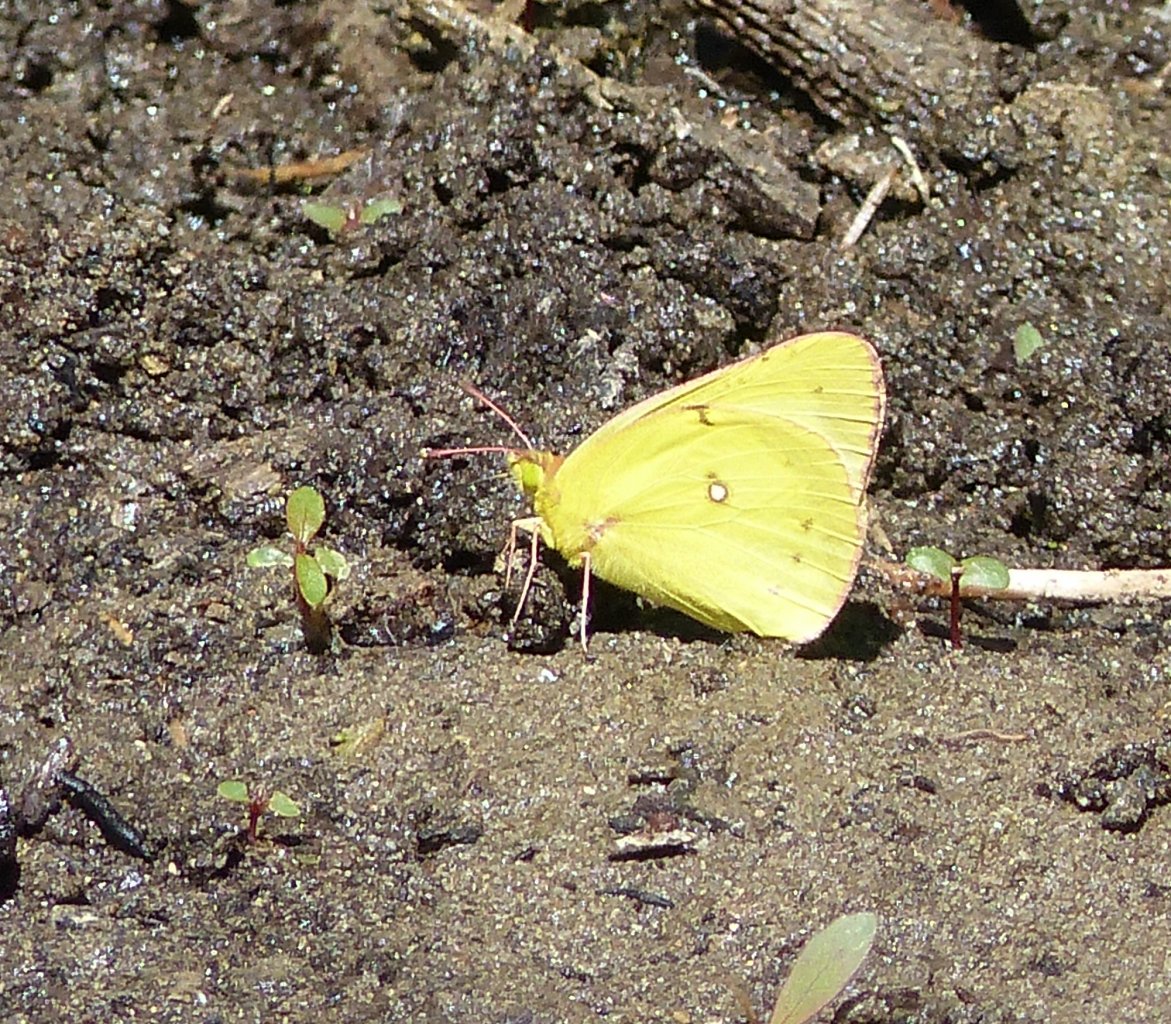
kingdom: Animalia
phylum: Arthropoda
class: Insecta
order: Lepidoptera
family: Pieridae
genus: Colias
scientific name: Colias philodice
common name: Clouded Sulphur
